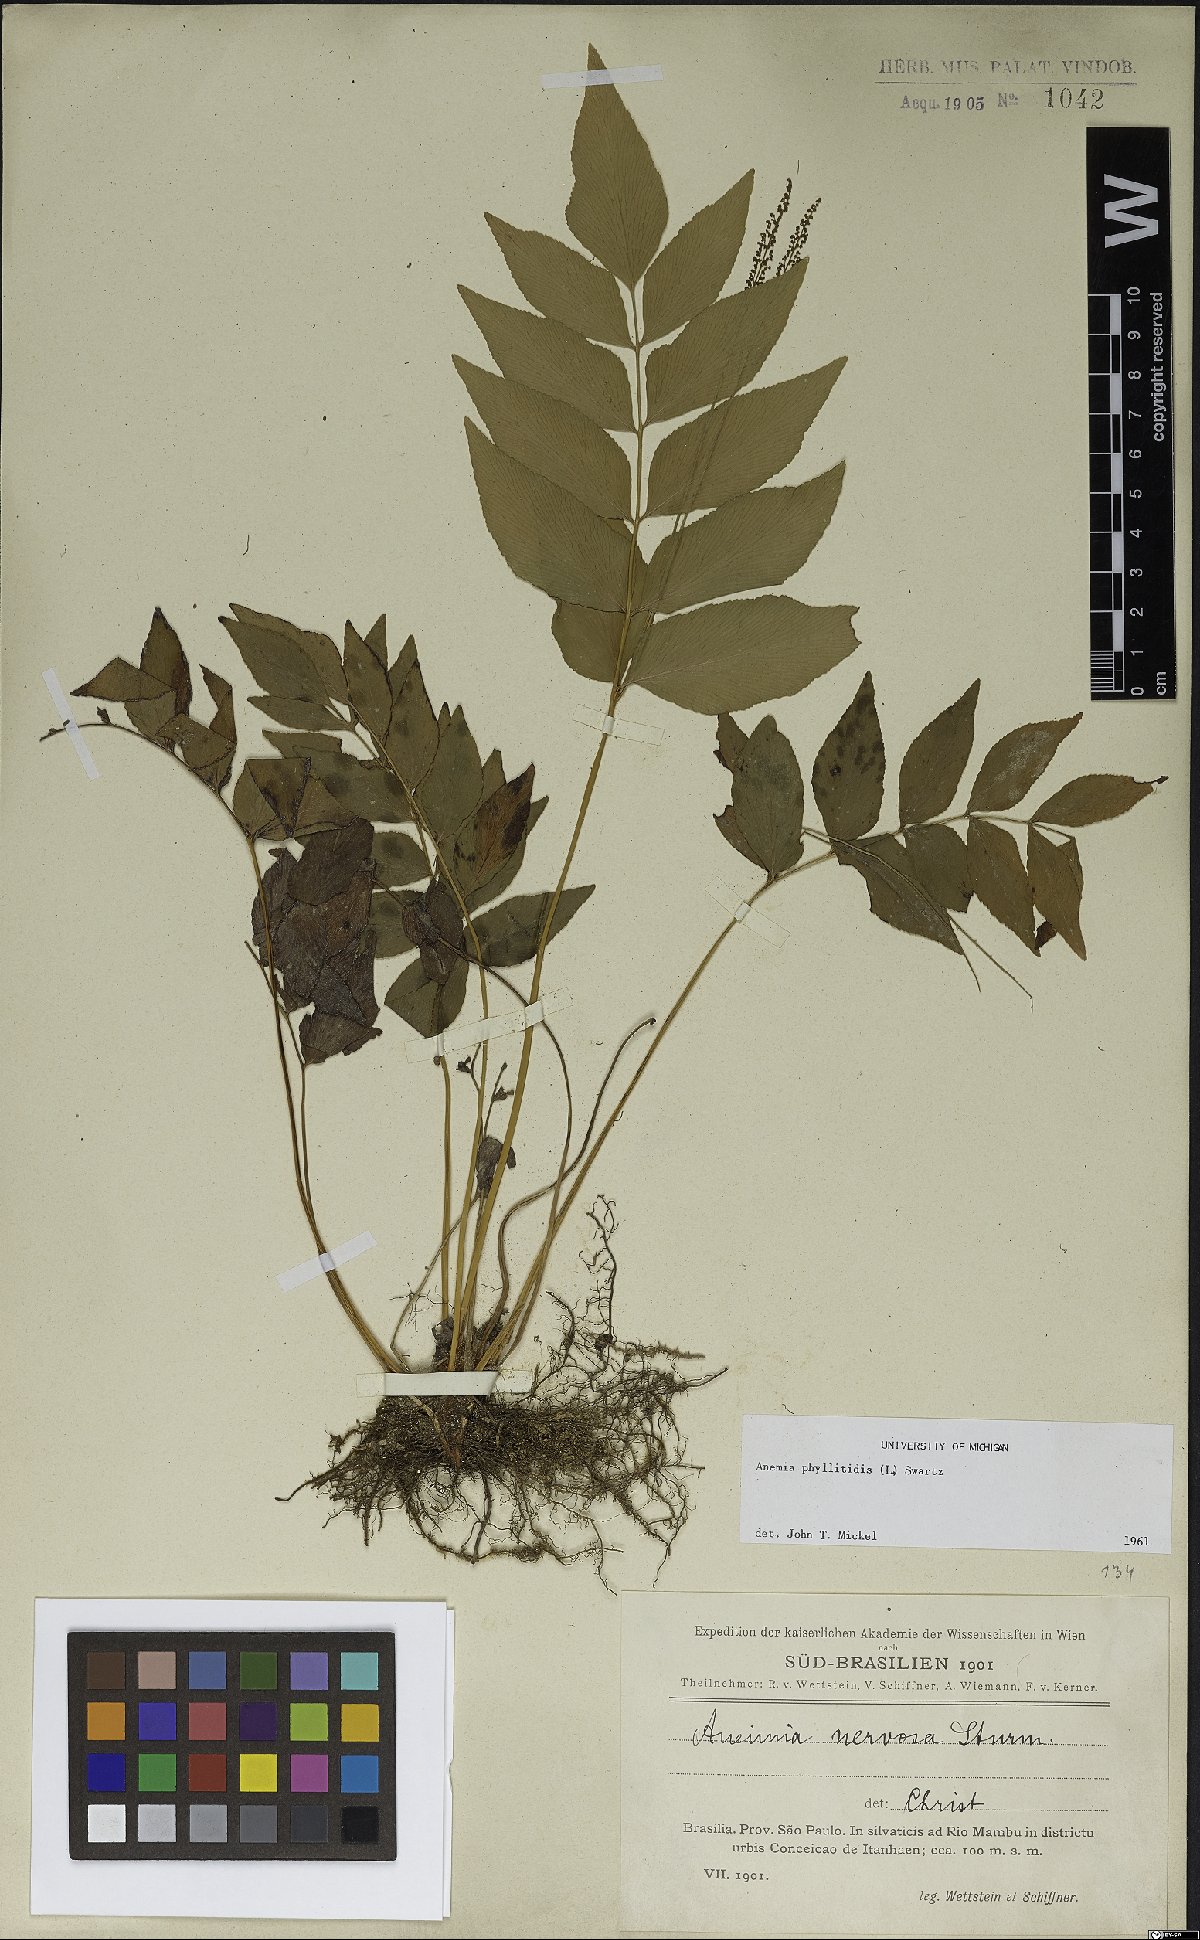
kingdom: Plantae
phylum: Tracheophyta
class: Polypodiopsida
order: Schizaeales
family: Anemiaceae
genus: Anemia
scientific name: Anemia phyllitidis
